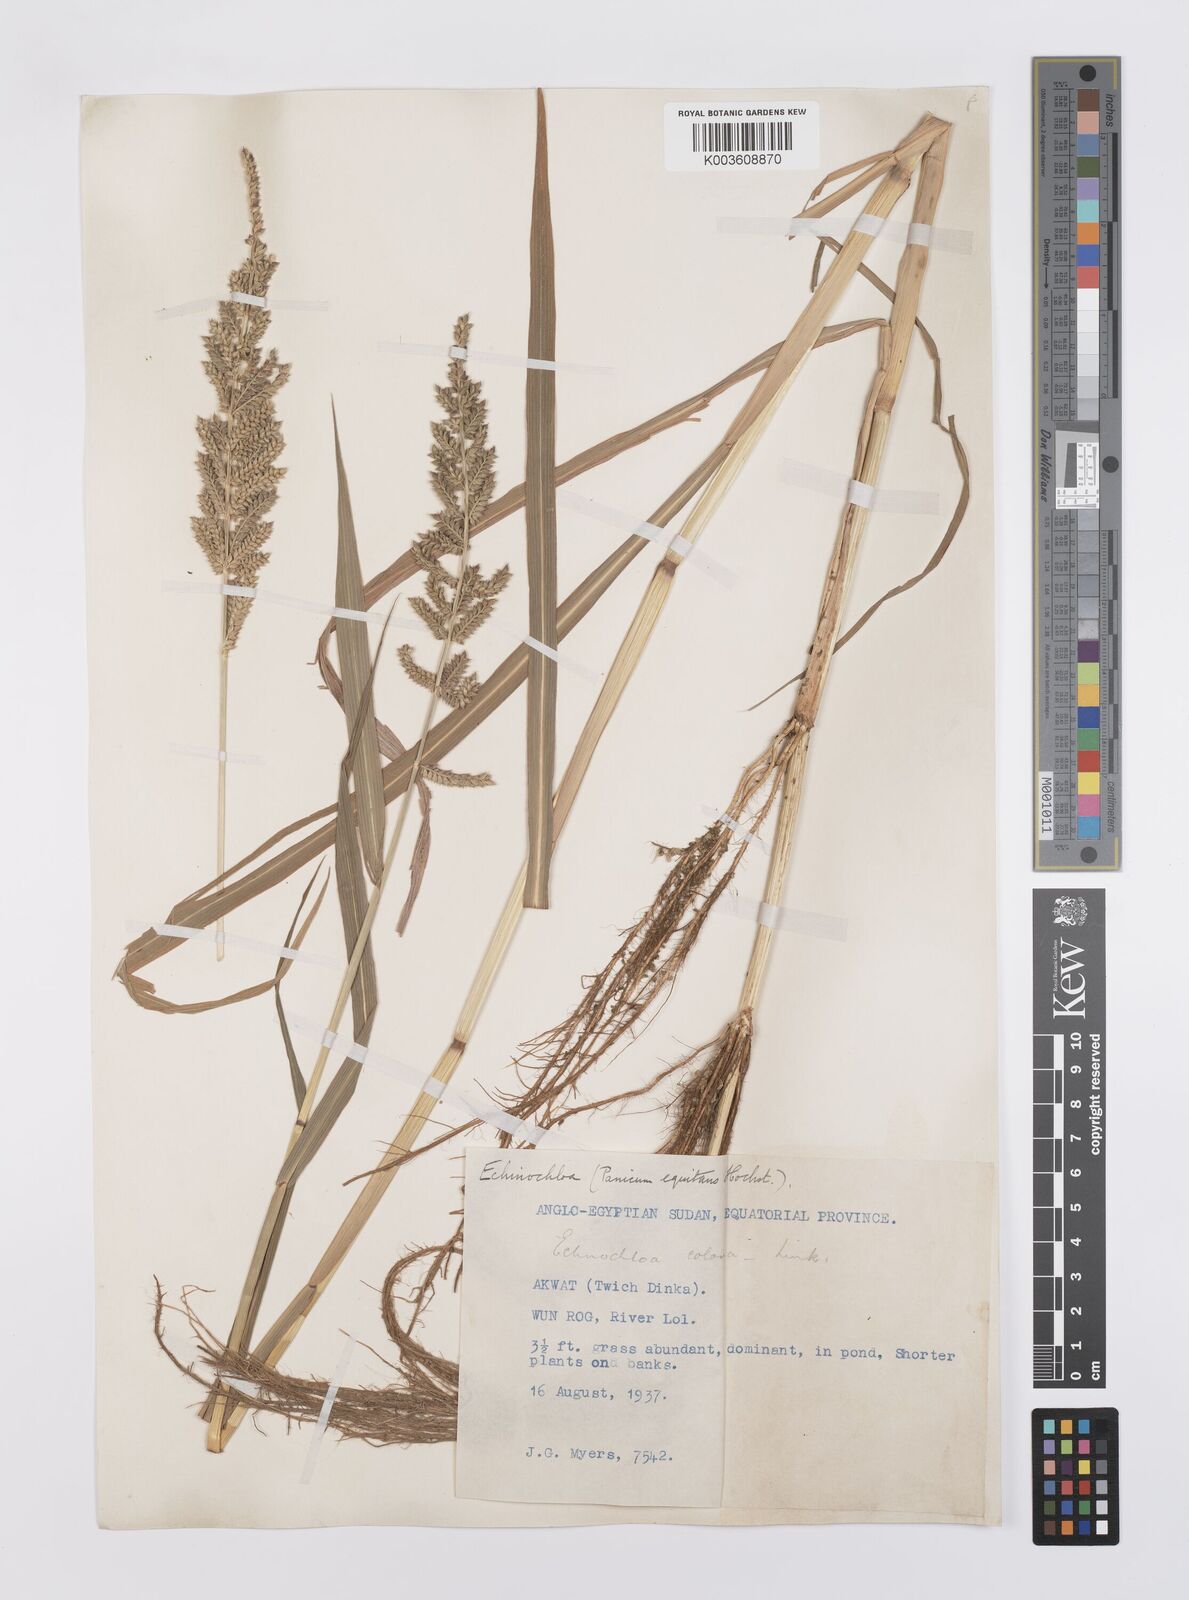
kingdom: Plantae
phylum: Tracheophyta
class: Liliopsida
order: Poales
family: Poaceae
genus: Echinochloa
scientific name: Echinochloa colonum
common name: Jungle rice
